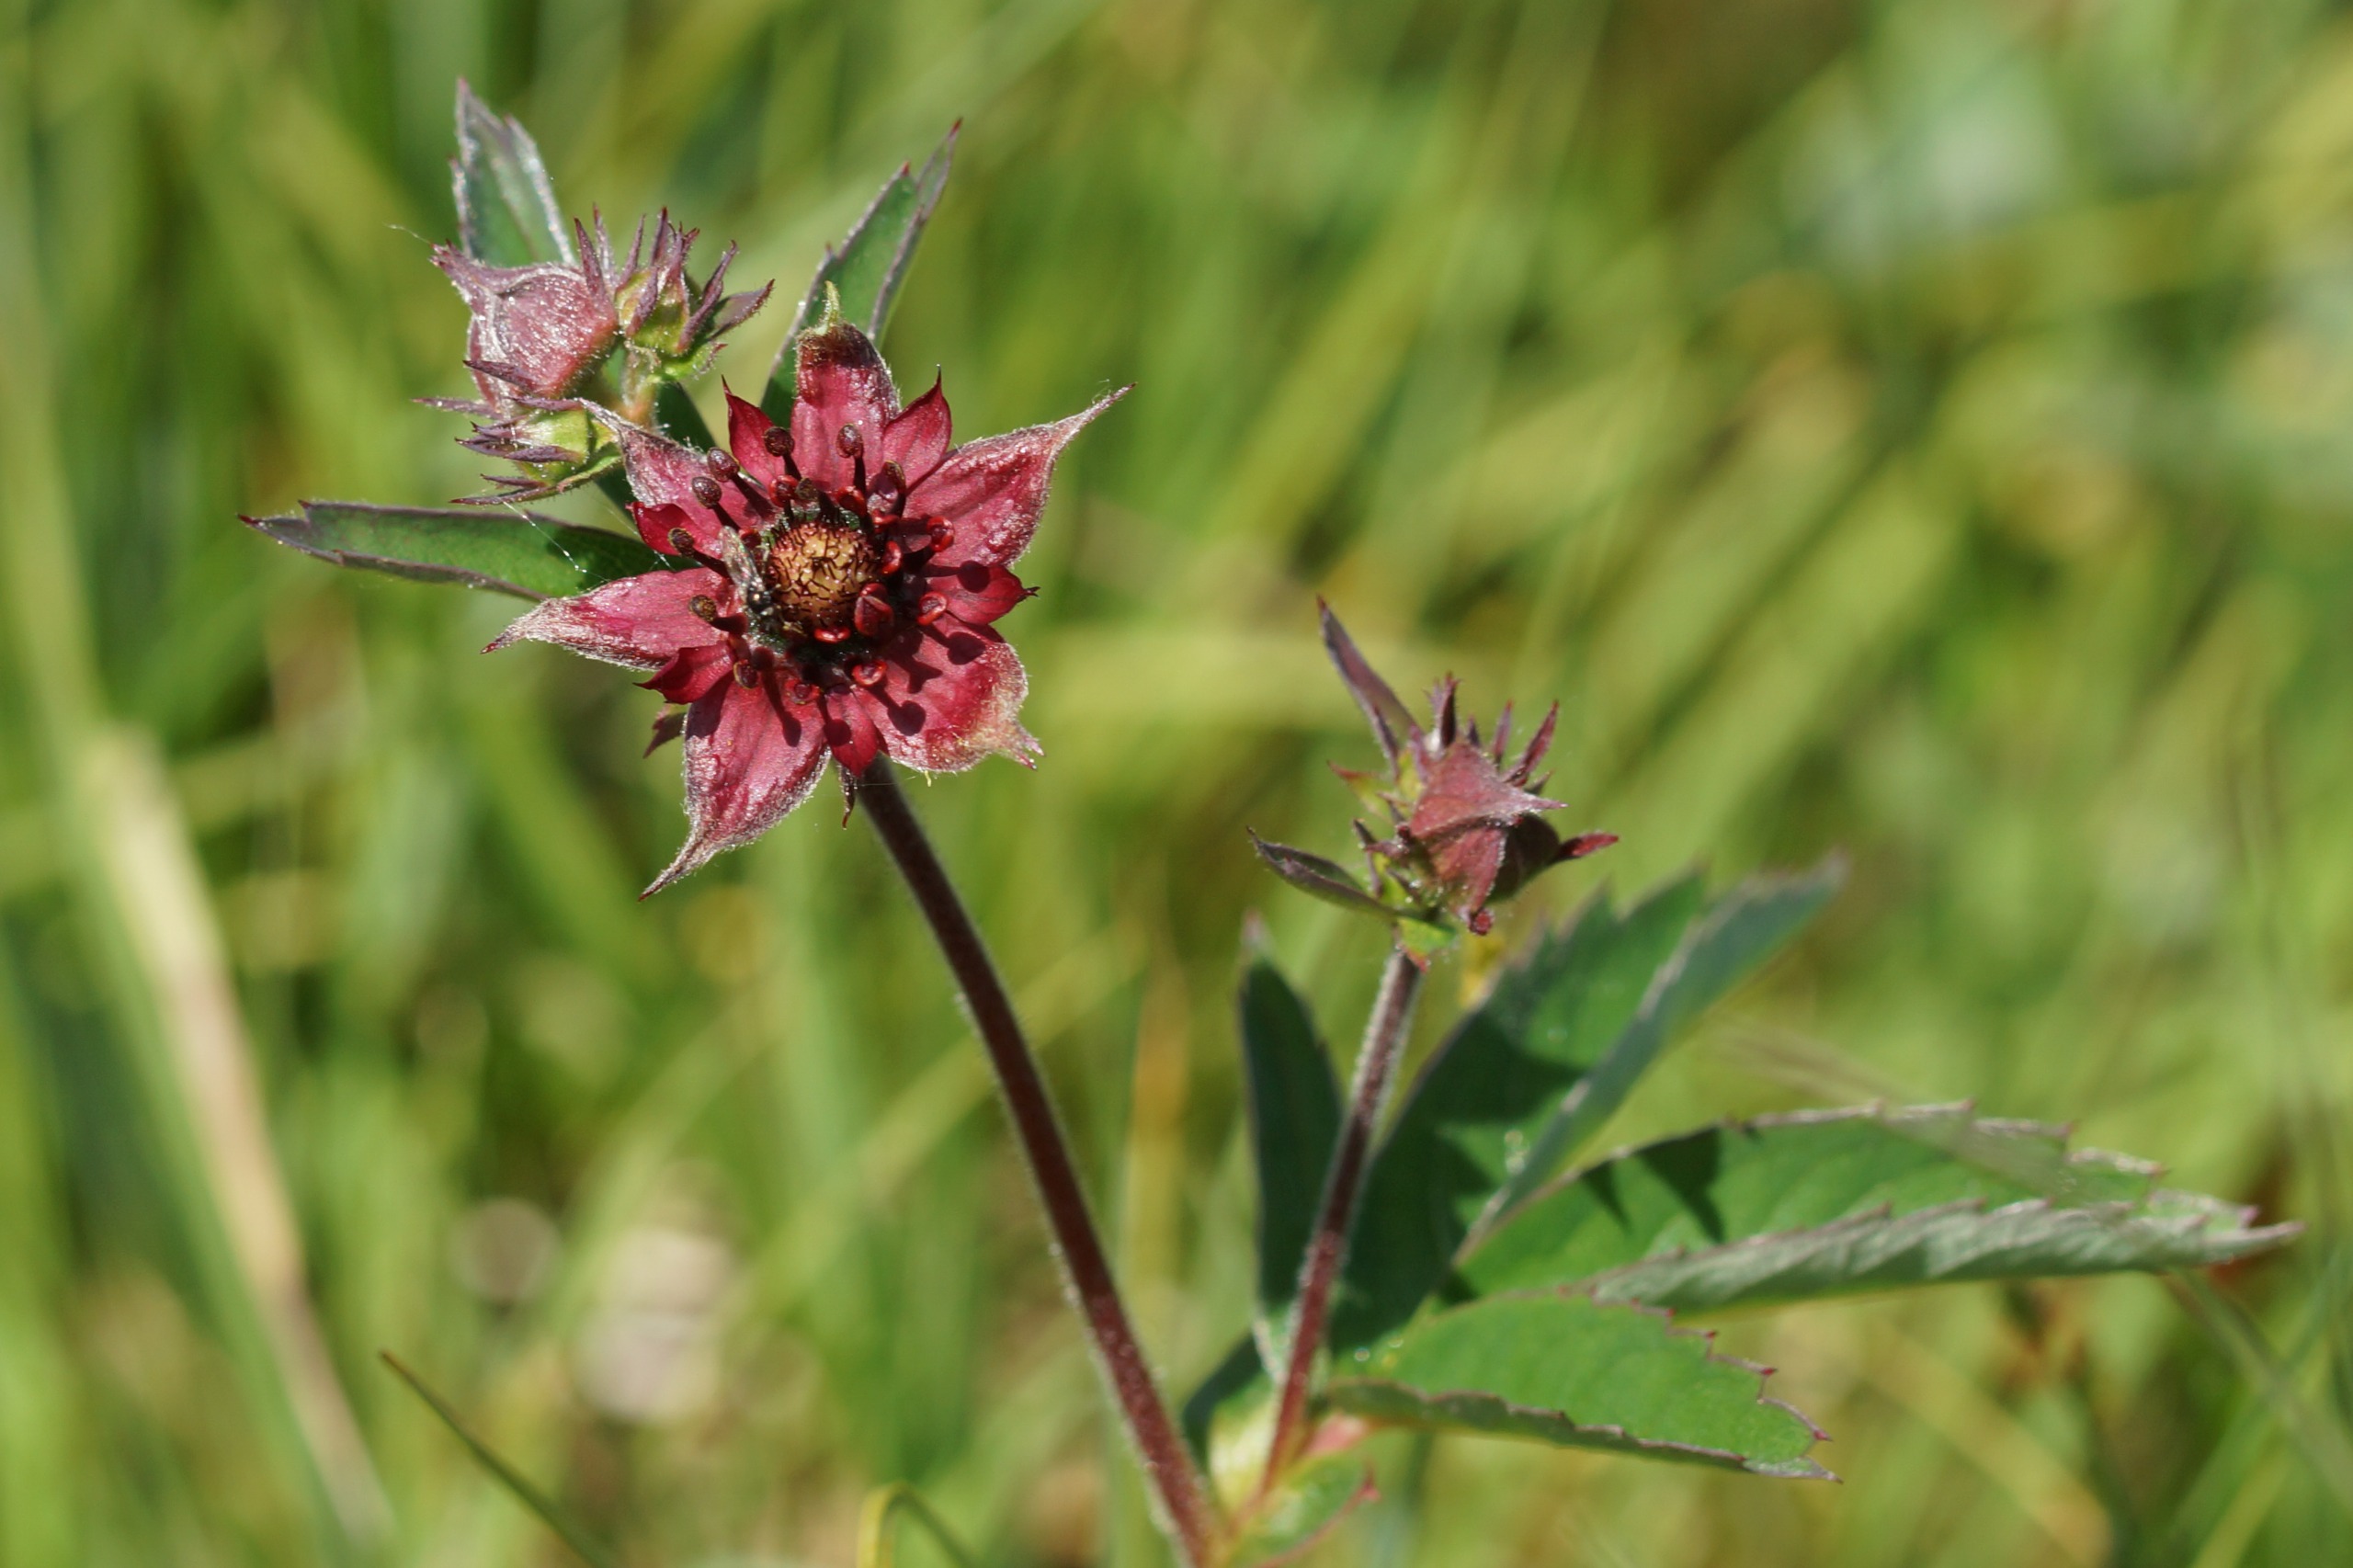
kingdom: Plantae
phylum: Tracheophyta
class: Magnoliopsida
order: Rosales
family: Rosaceae
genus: Comarum
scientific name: Comarum palustre
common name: Kragefod
